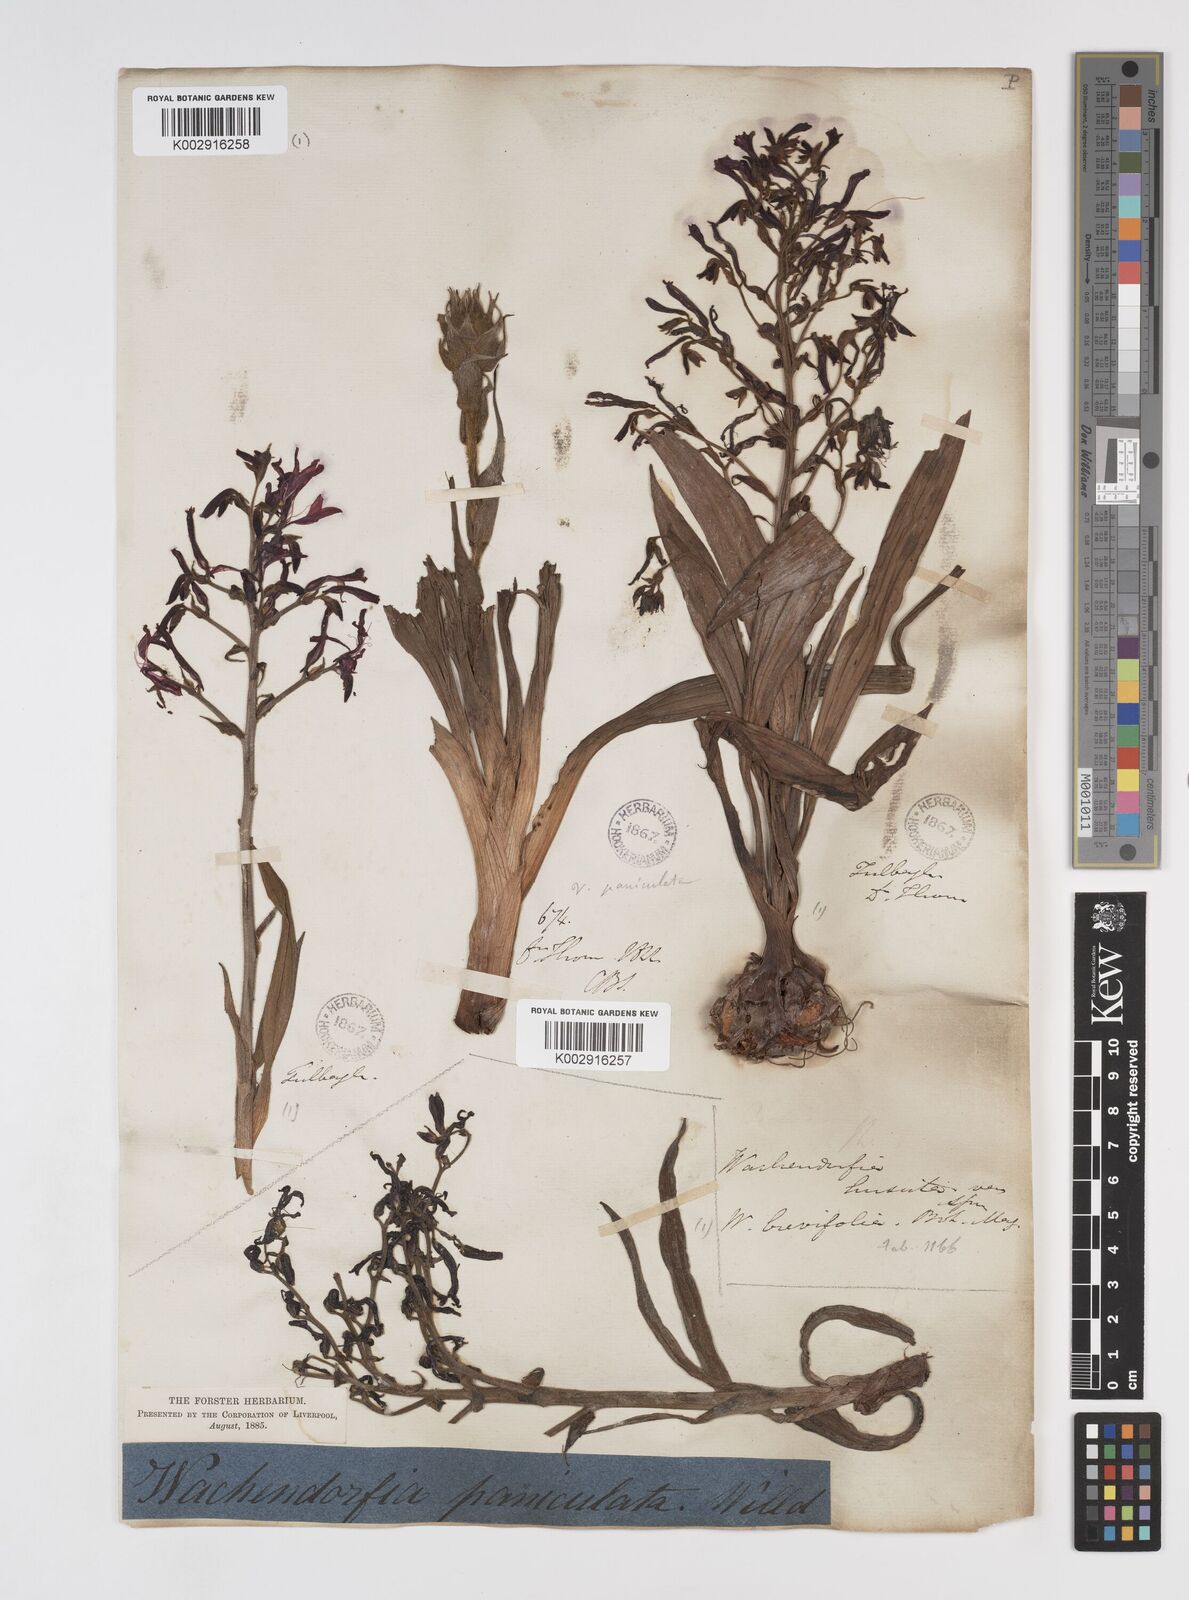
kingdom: Plantae
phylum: Tracheophyta
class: Liliopsida
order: Commelinales
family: Haemodoraceae
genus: Wachendorfia
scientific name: Wachendorfia paniculata
